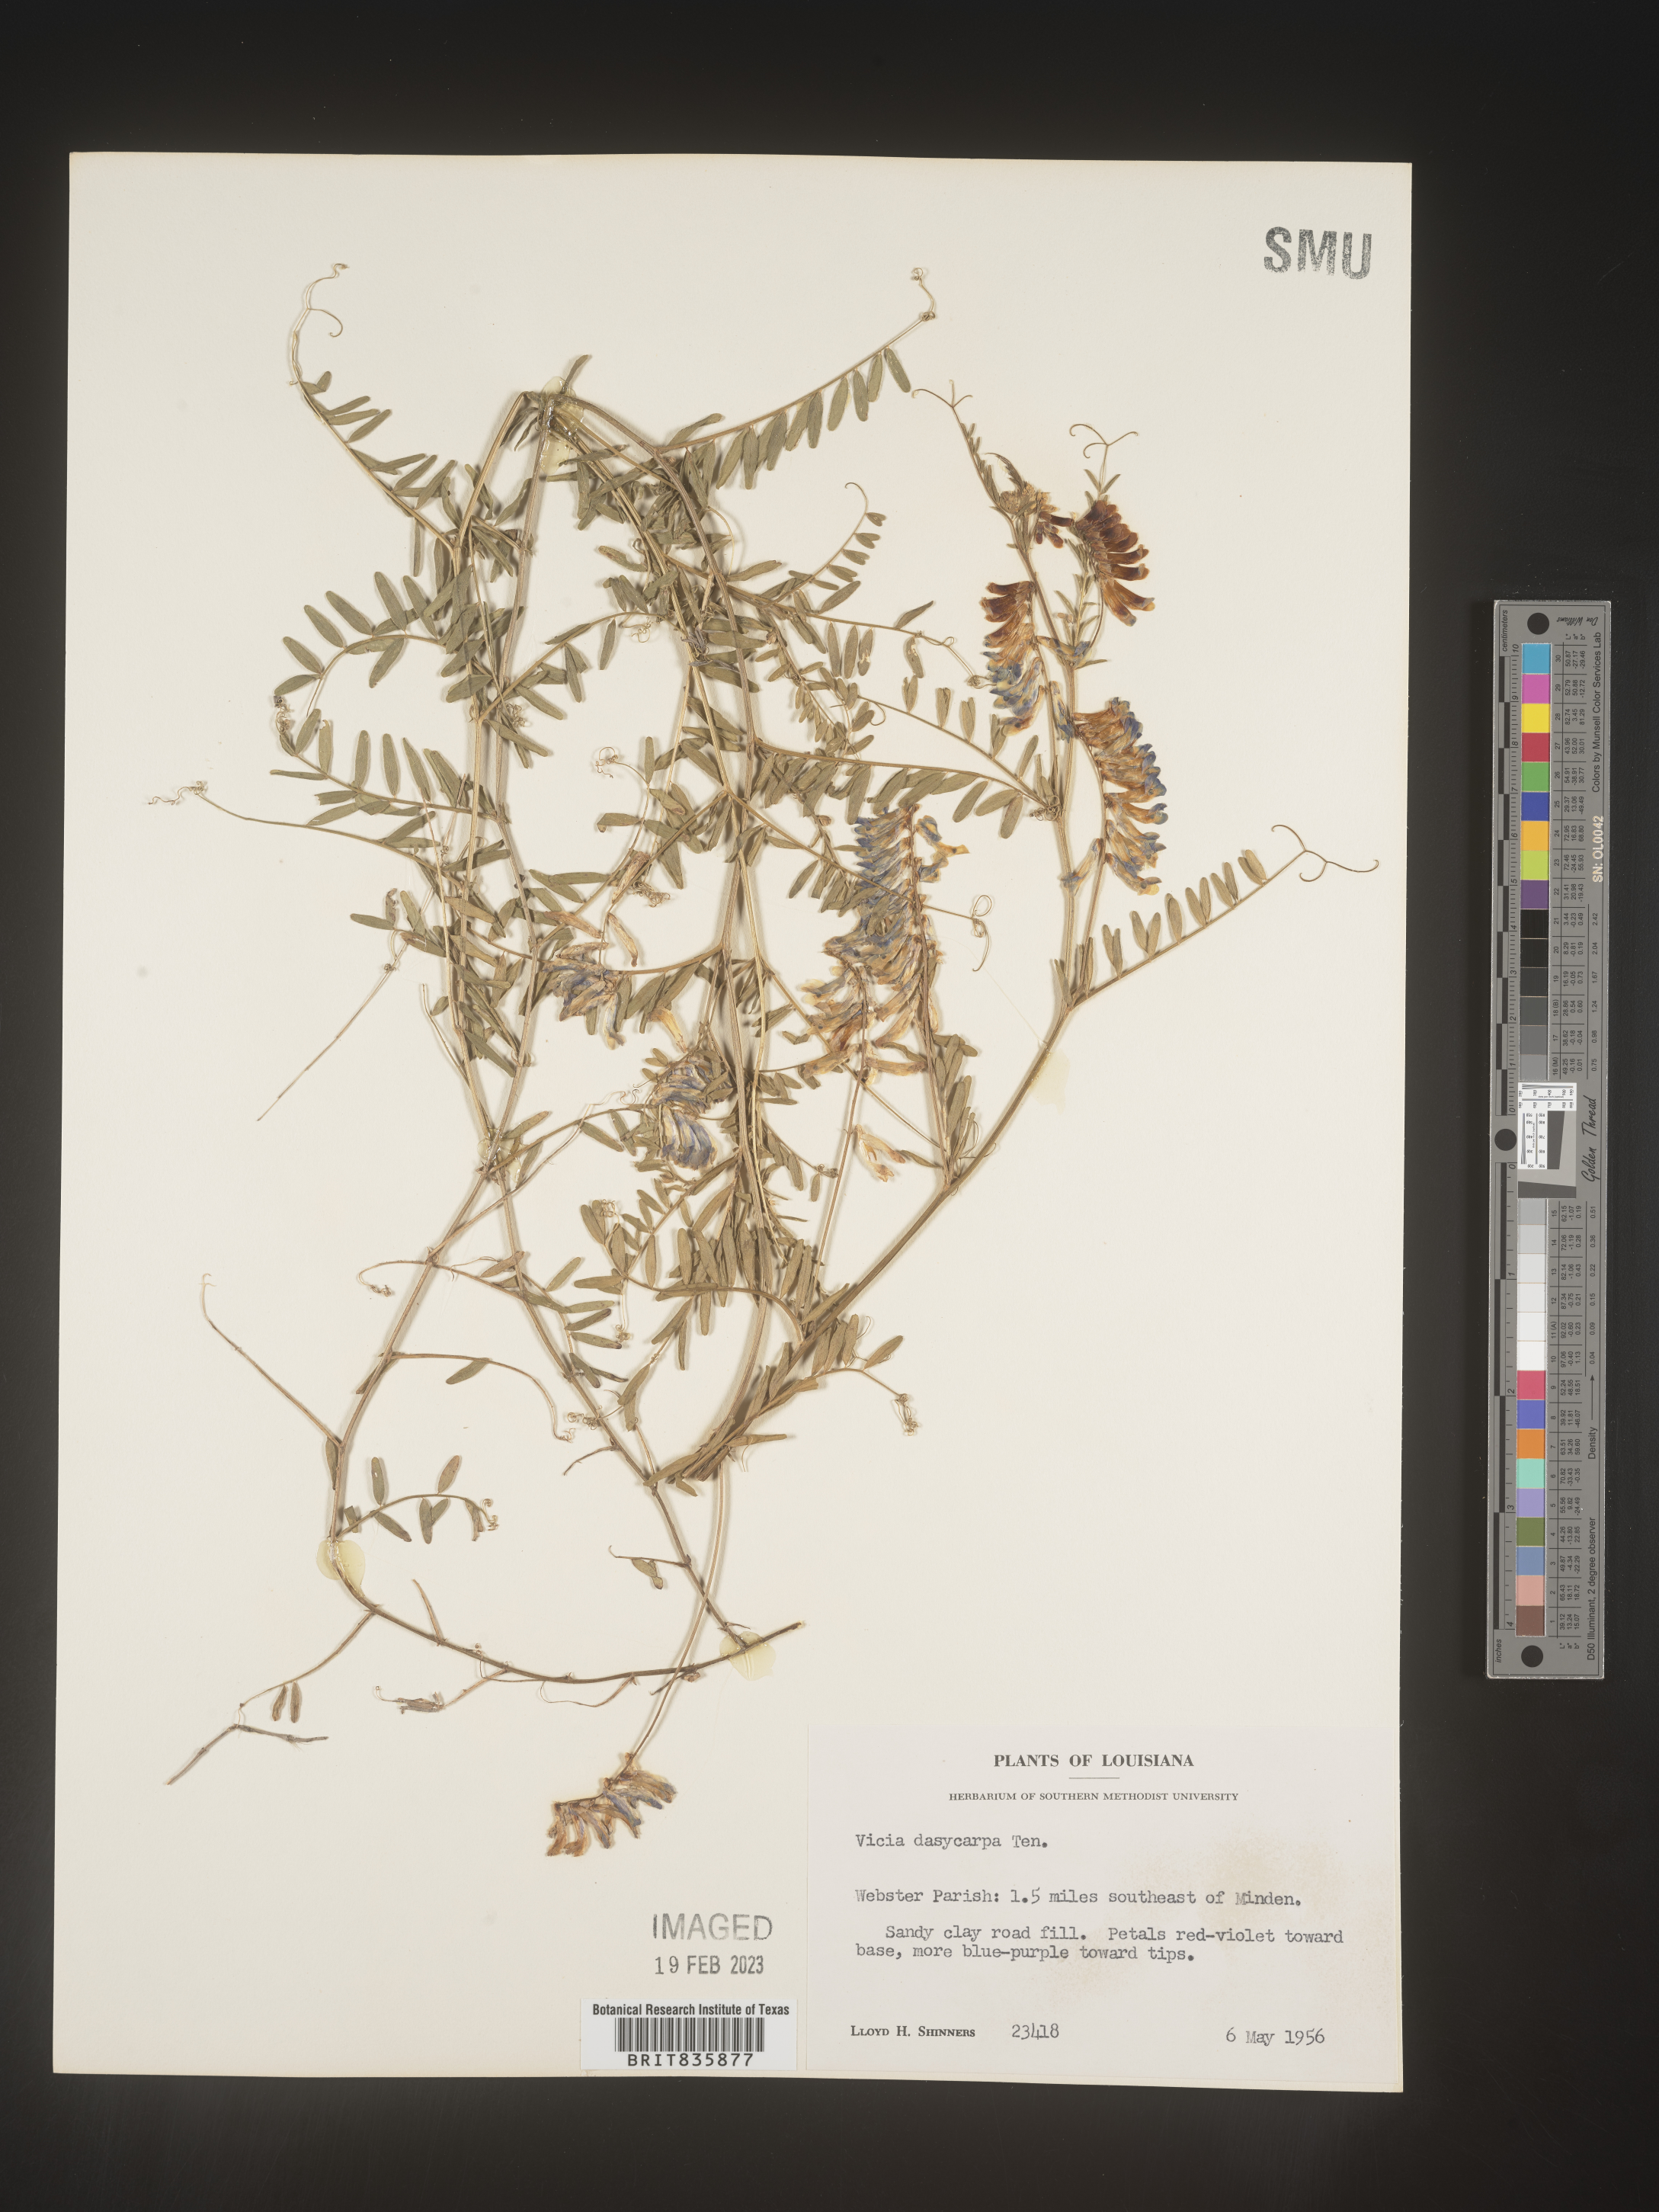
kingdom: Plantae
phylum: Tracheophyta
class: Magnoliopsida
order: Fabales
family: Fabaceae
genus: Vicia
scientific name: Vicia villosa
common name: Fodder vetch
